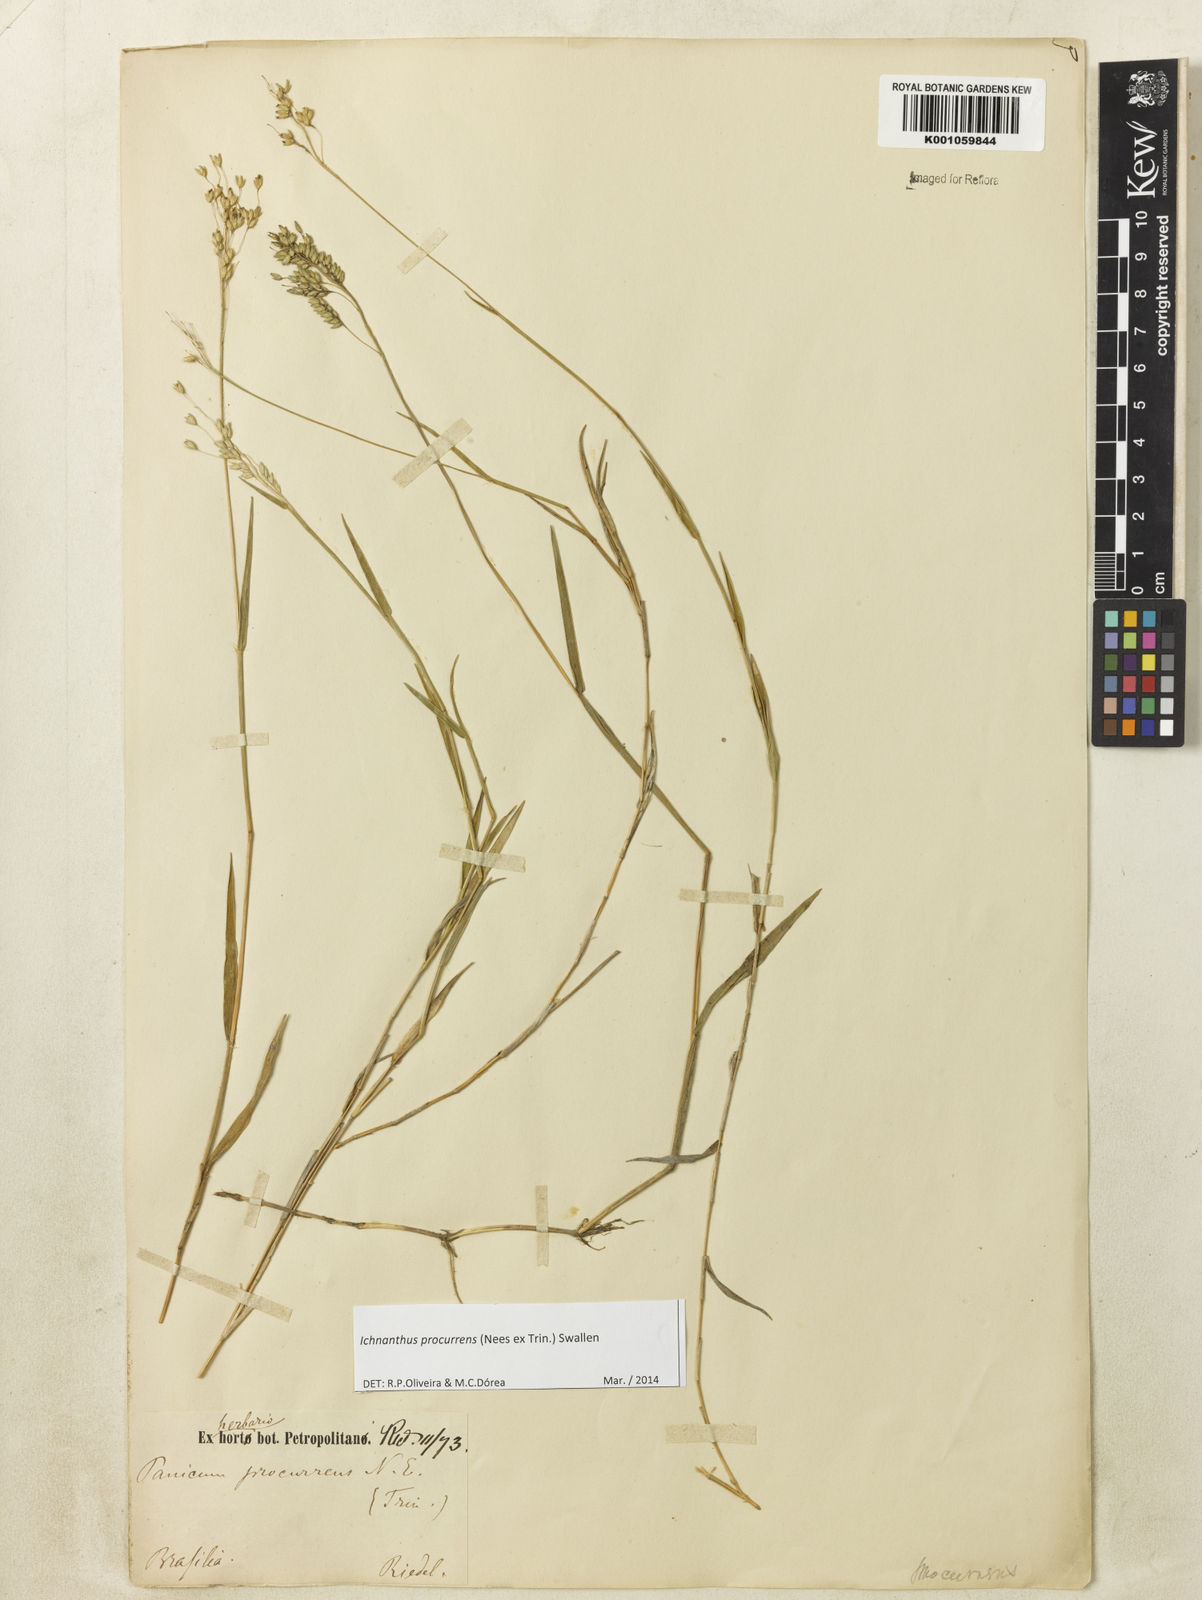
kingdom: Plantae
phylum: Tracheophyta
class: Liliopsida
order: Poales
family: Poaceae
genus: Oedochloa
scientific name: Oedochloa procurrens
